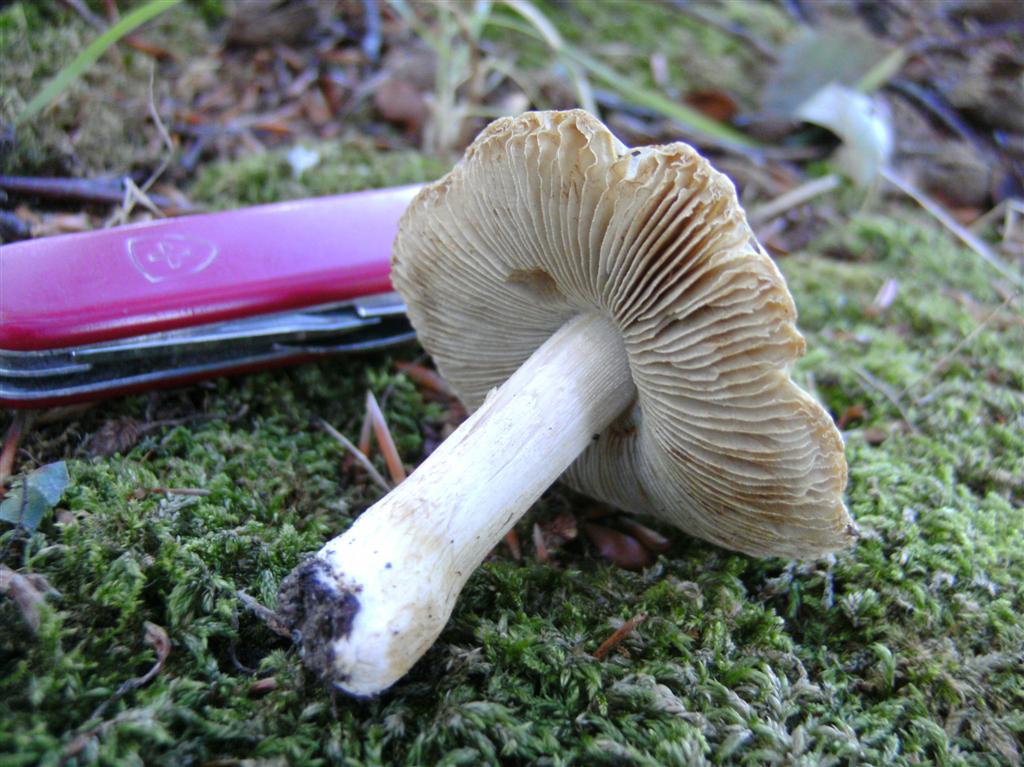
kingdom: Fungi
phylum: Basidiomycota
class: Agaricomycetes
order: Agaricales
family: Inocybaceae
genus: Pseudosperma
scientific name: Pseudosperma rimosum
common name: gulbladet trævlhat
